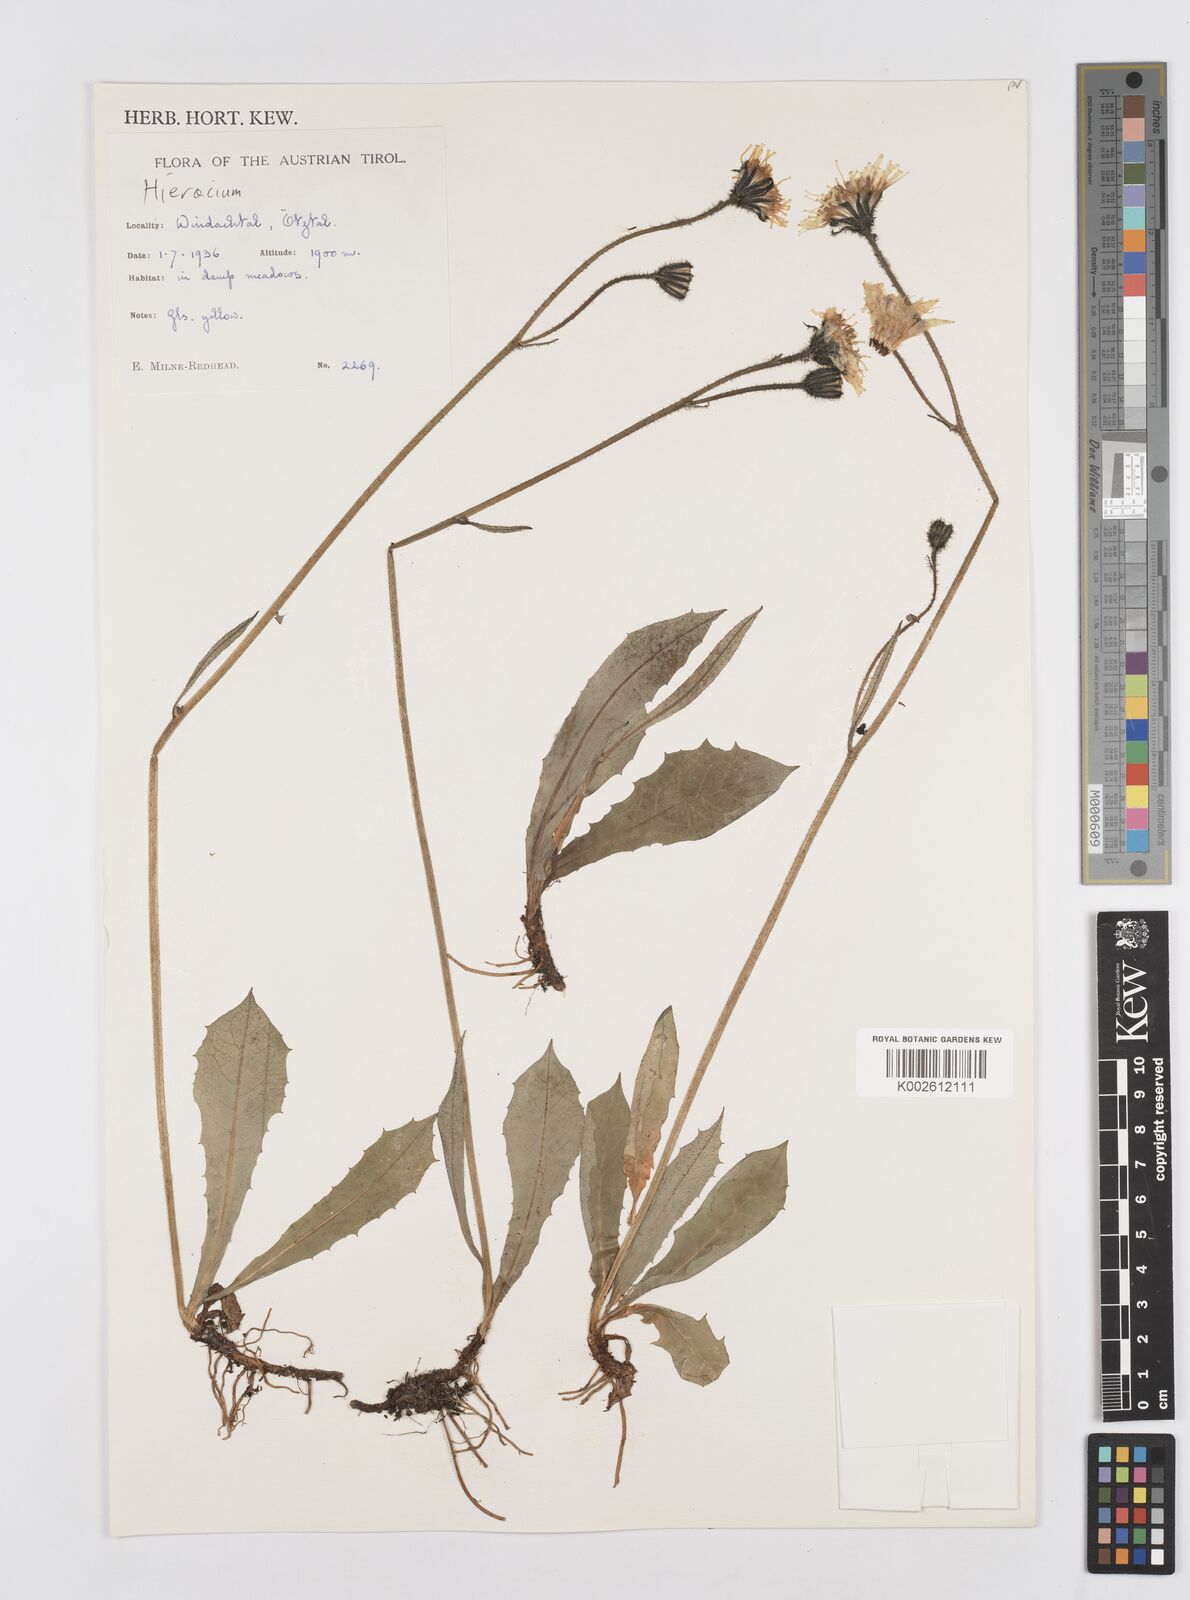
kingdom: Plantae
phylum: Tracheophyta
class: Magnoliopsida
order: Asterales
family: Asteraceae
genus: Hieracium
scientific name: Hieracium
